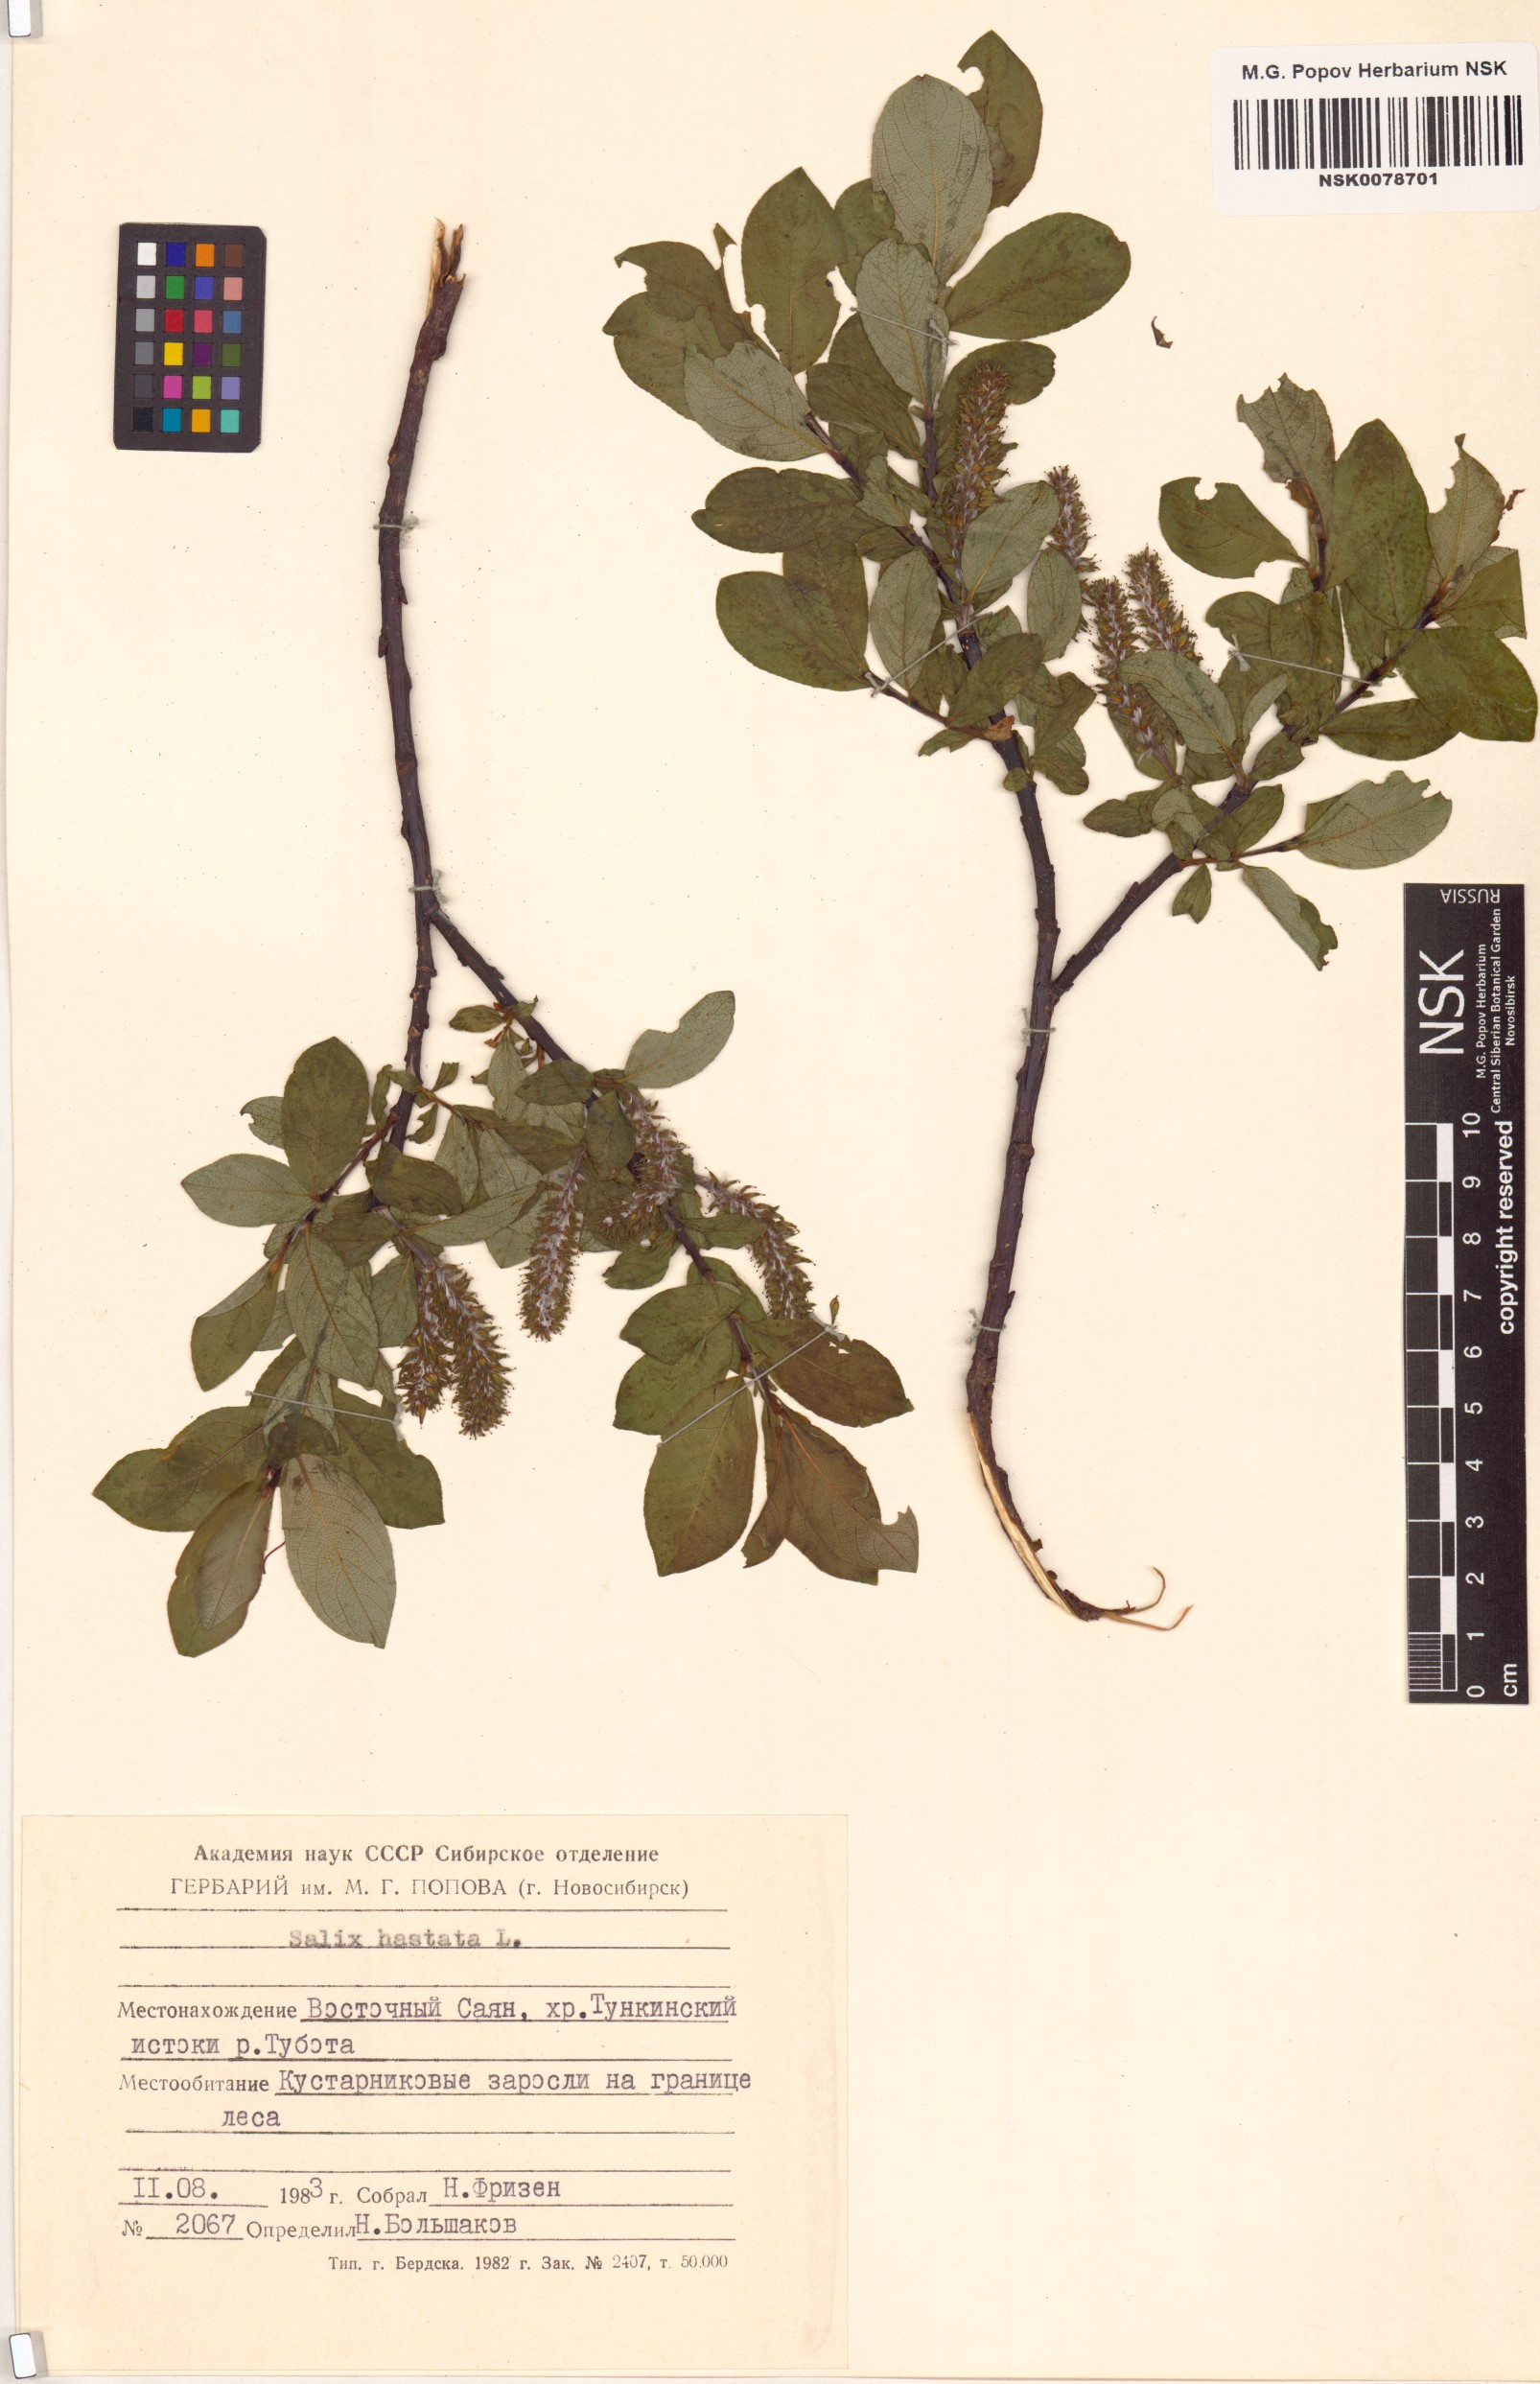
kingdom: Plantae
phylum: Tracheophyta
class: Magnoliopsida
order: Malpighiales
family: Salicaceae
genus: Salix
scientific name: Salix hastata
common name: Halberd willow
